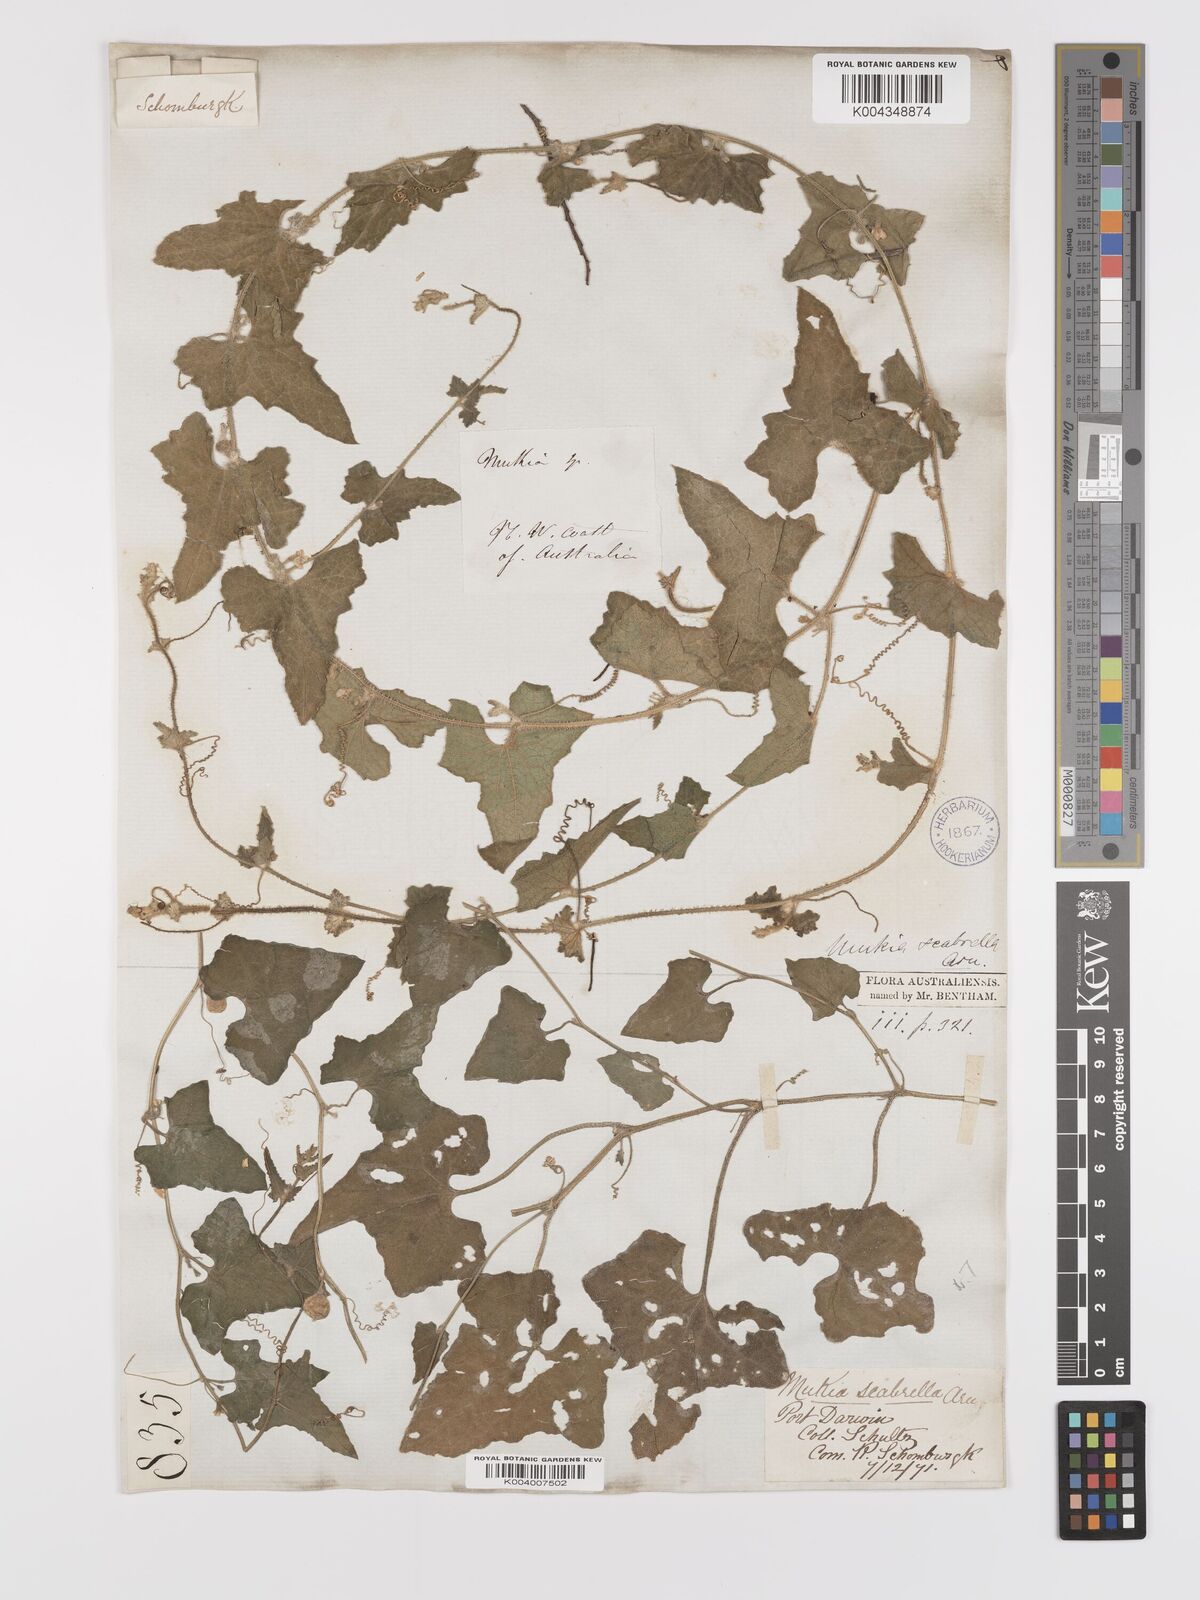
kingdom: Animalia
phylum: Arthropoda
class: Insecta
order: Lepidoptera
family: Crambidae
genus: Mukia
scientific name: Mukia
